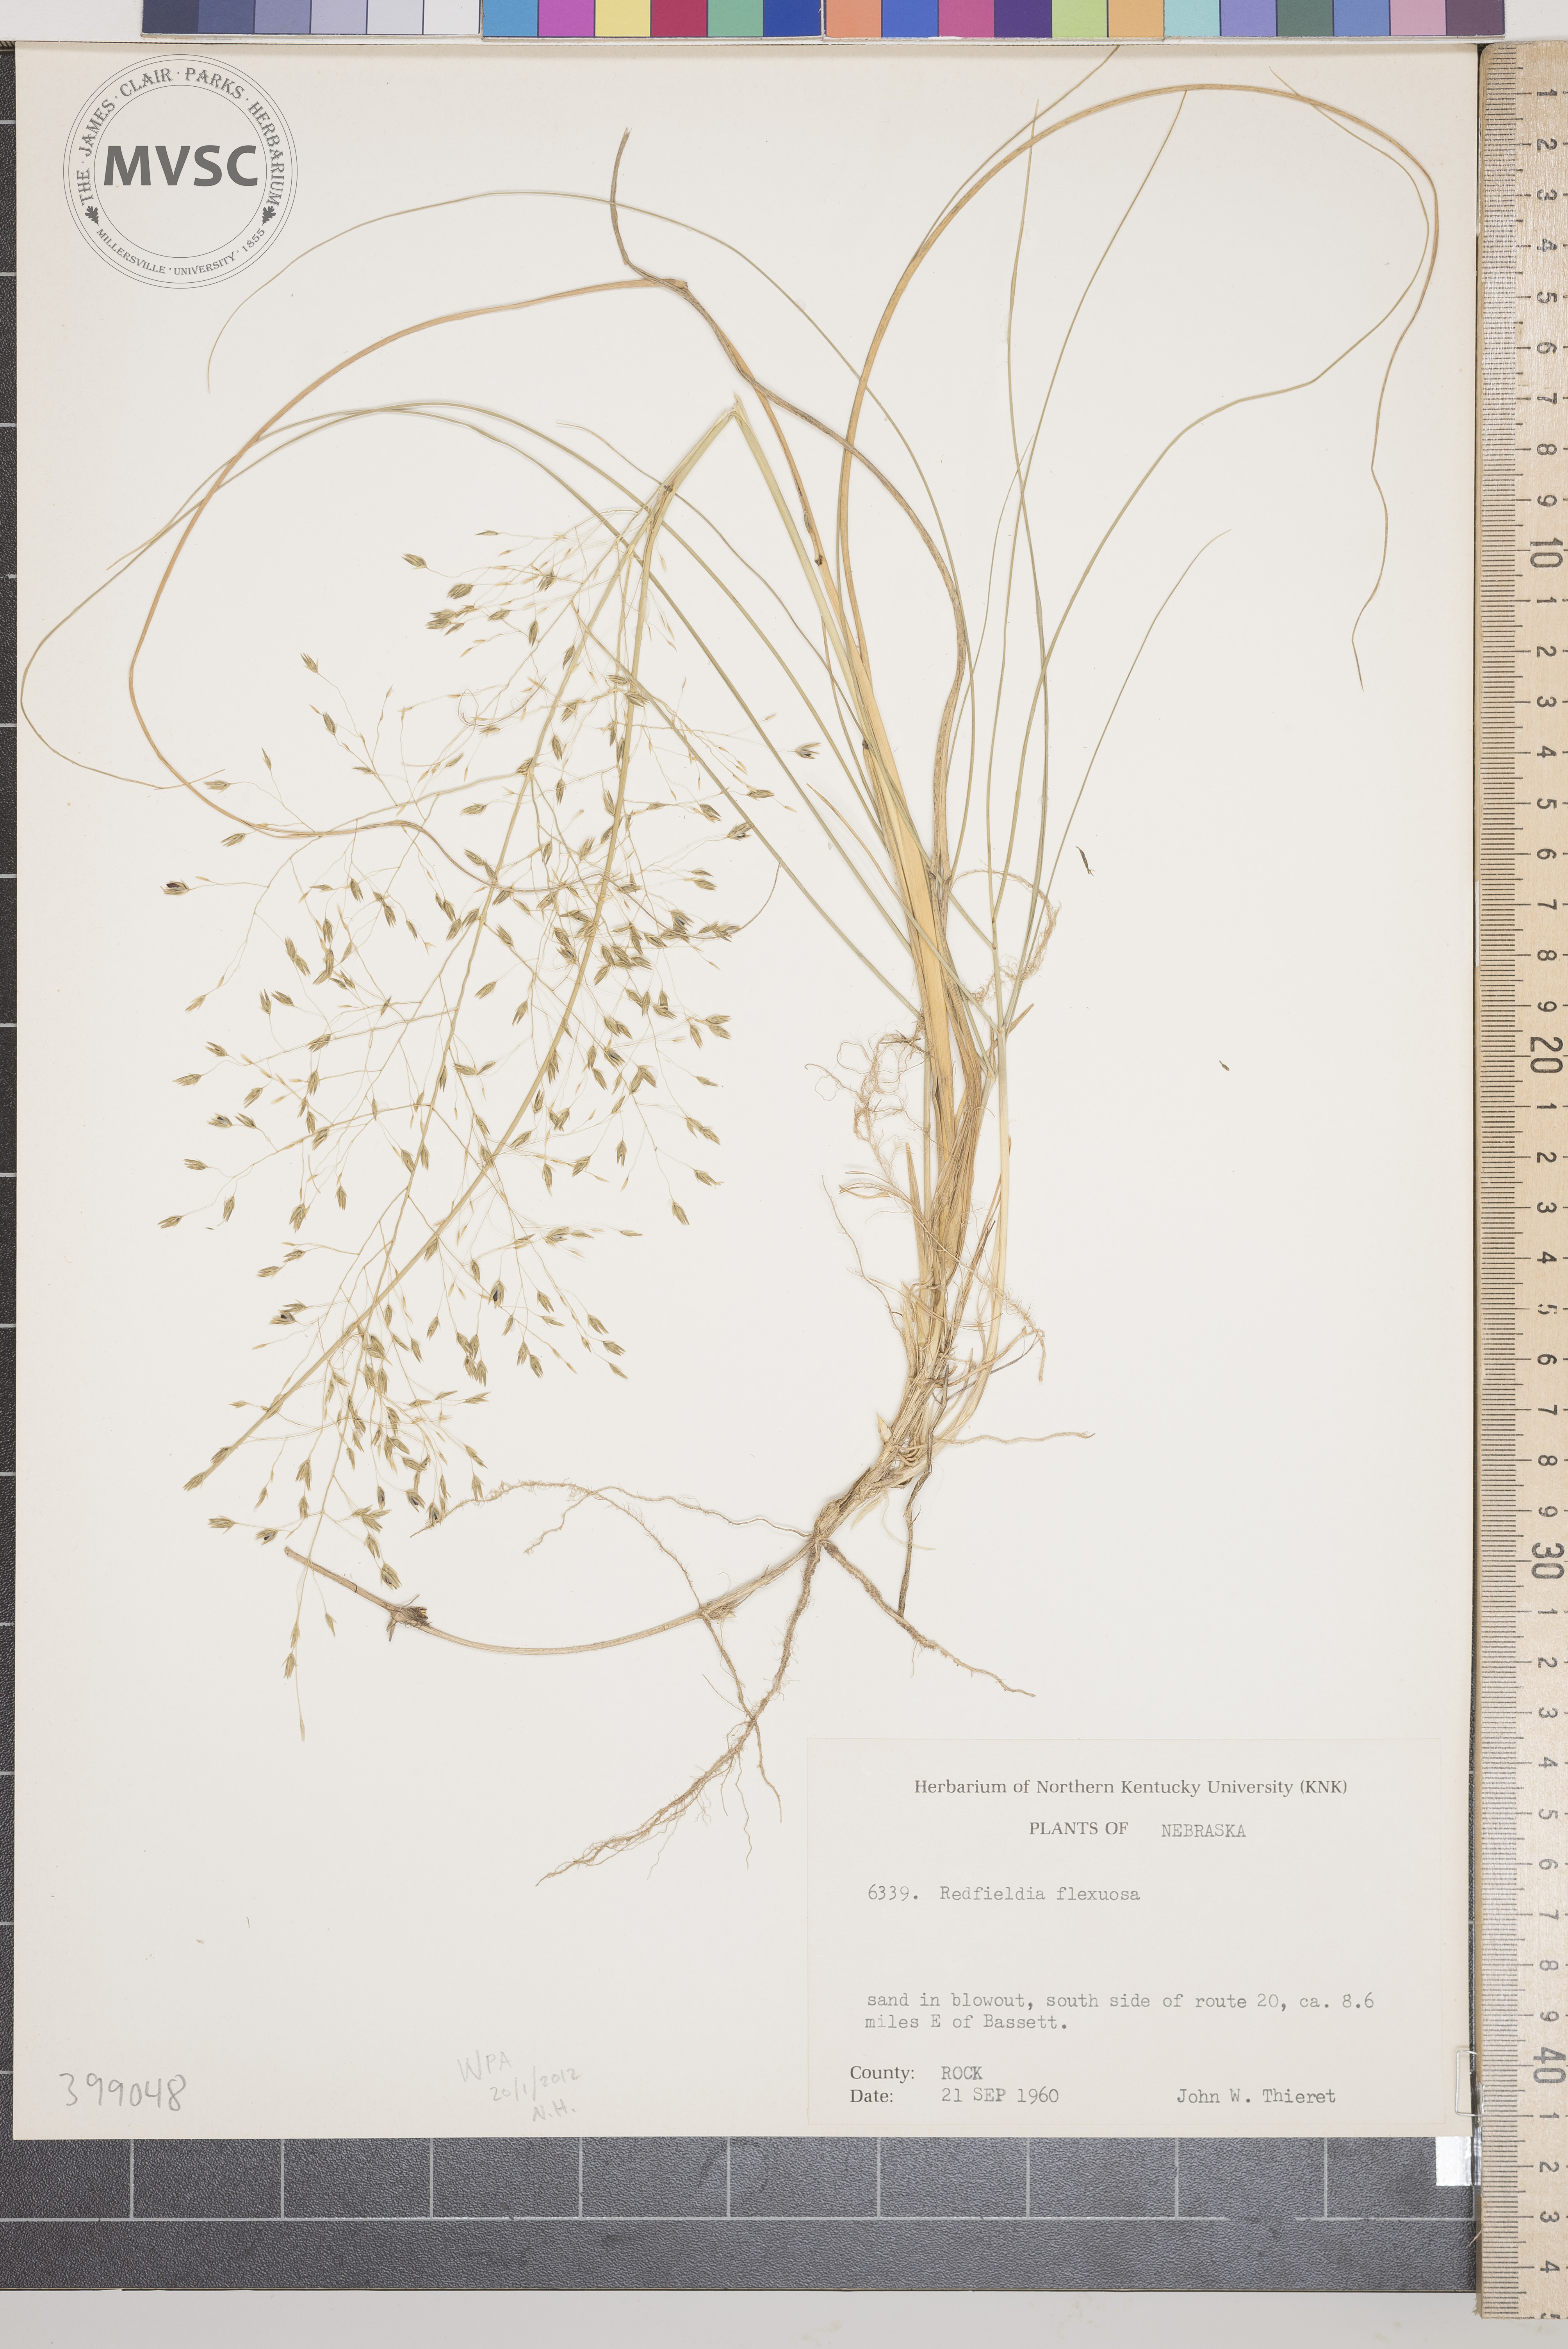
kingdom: Plantae
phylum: Tracheophyta
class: Liliopsida
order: Poales
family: Poaceae
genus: Muhlenbergia
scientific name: Muhlenbergia multiflora
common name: blowout grass
